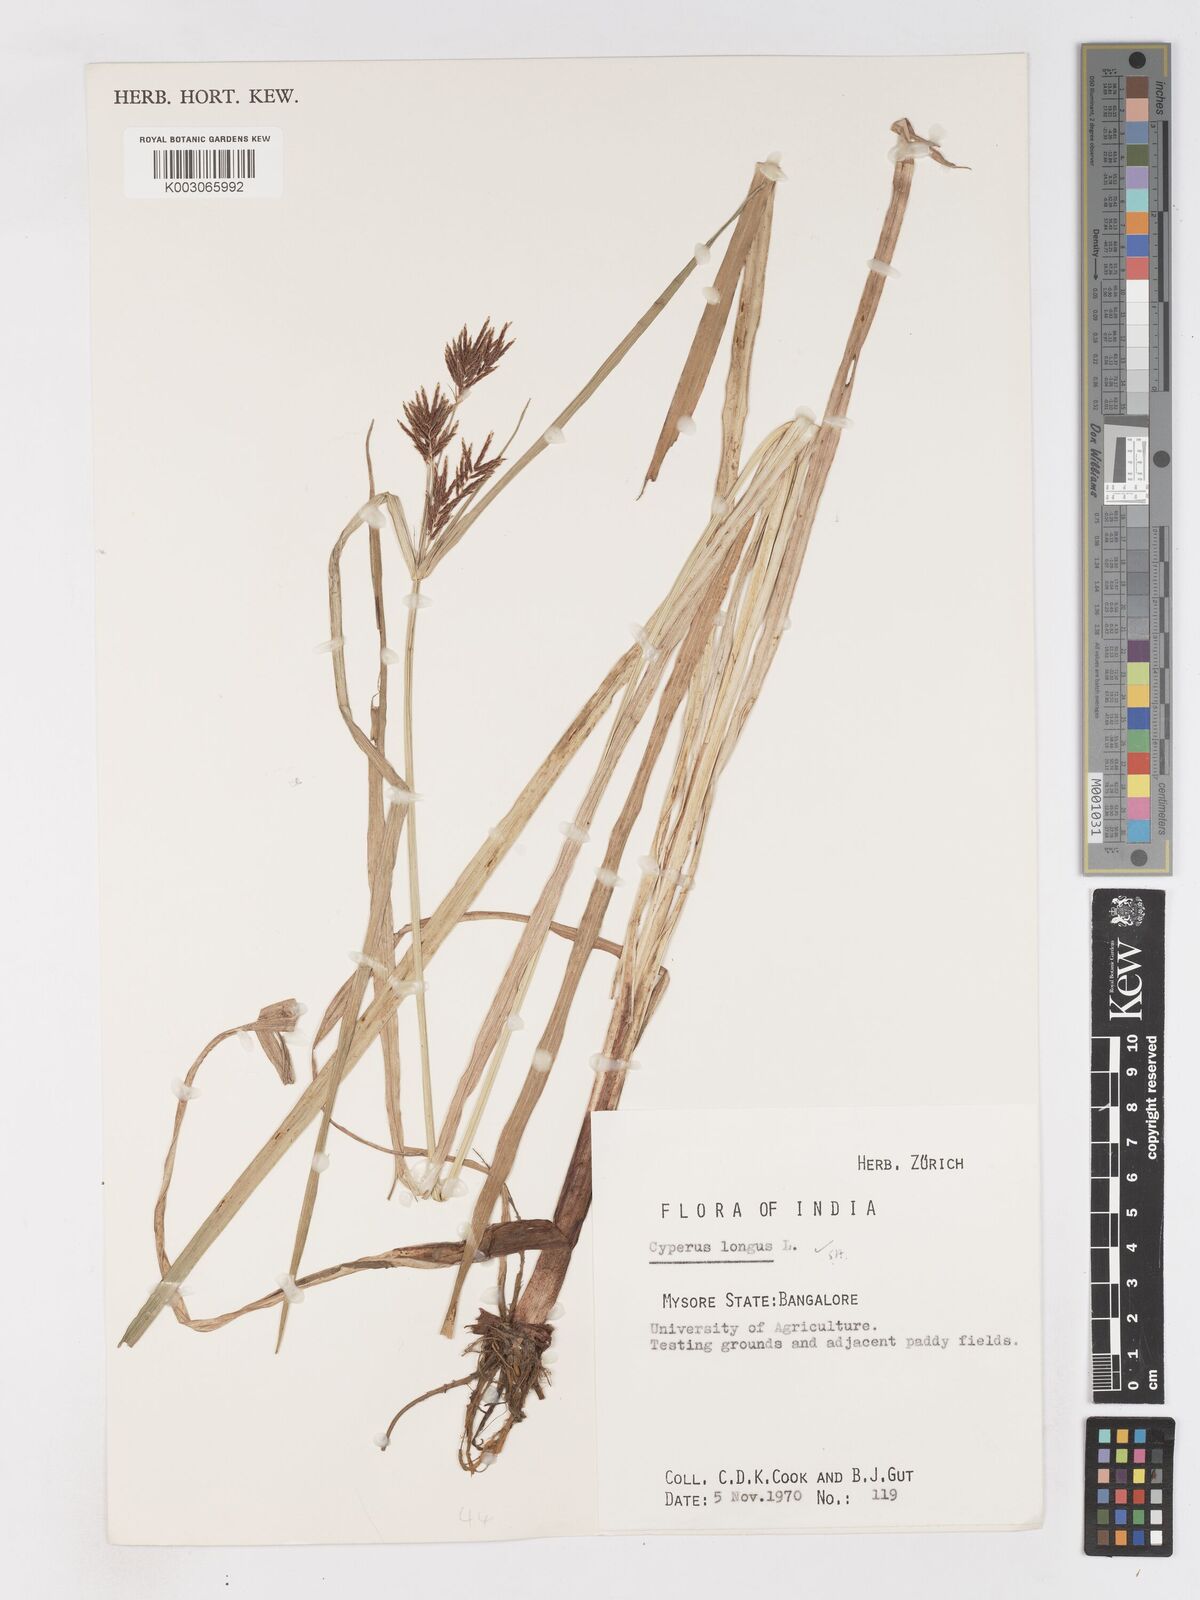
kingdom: Plantae
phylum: Tracheophyta
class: Liliopsida
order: Poales
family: Cyperaceae
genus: Cyperus
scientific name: Cyperus longus
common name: Galingale
